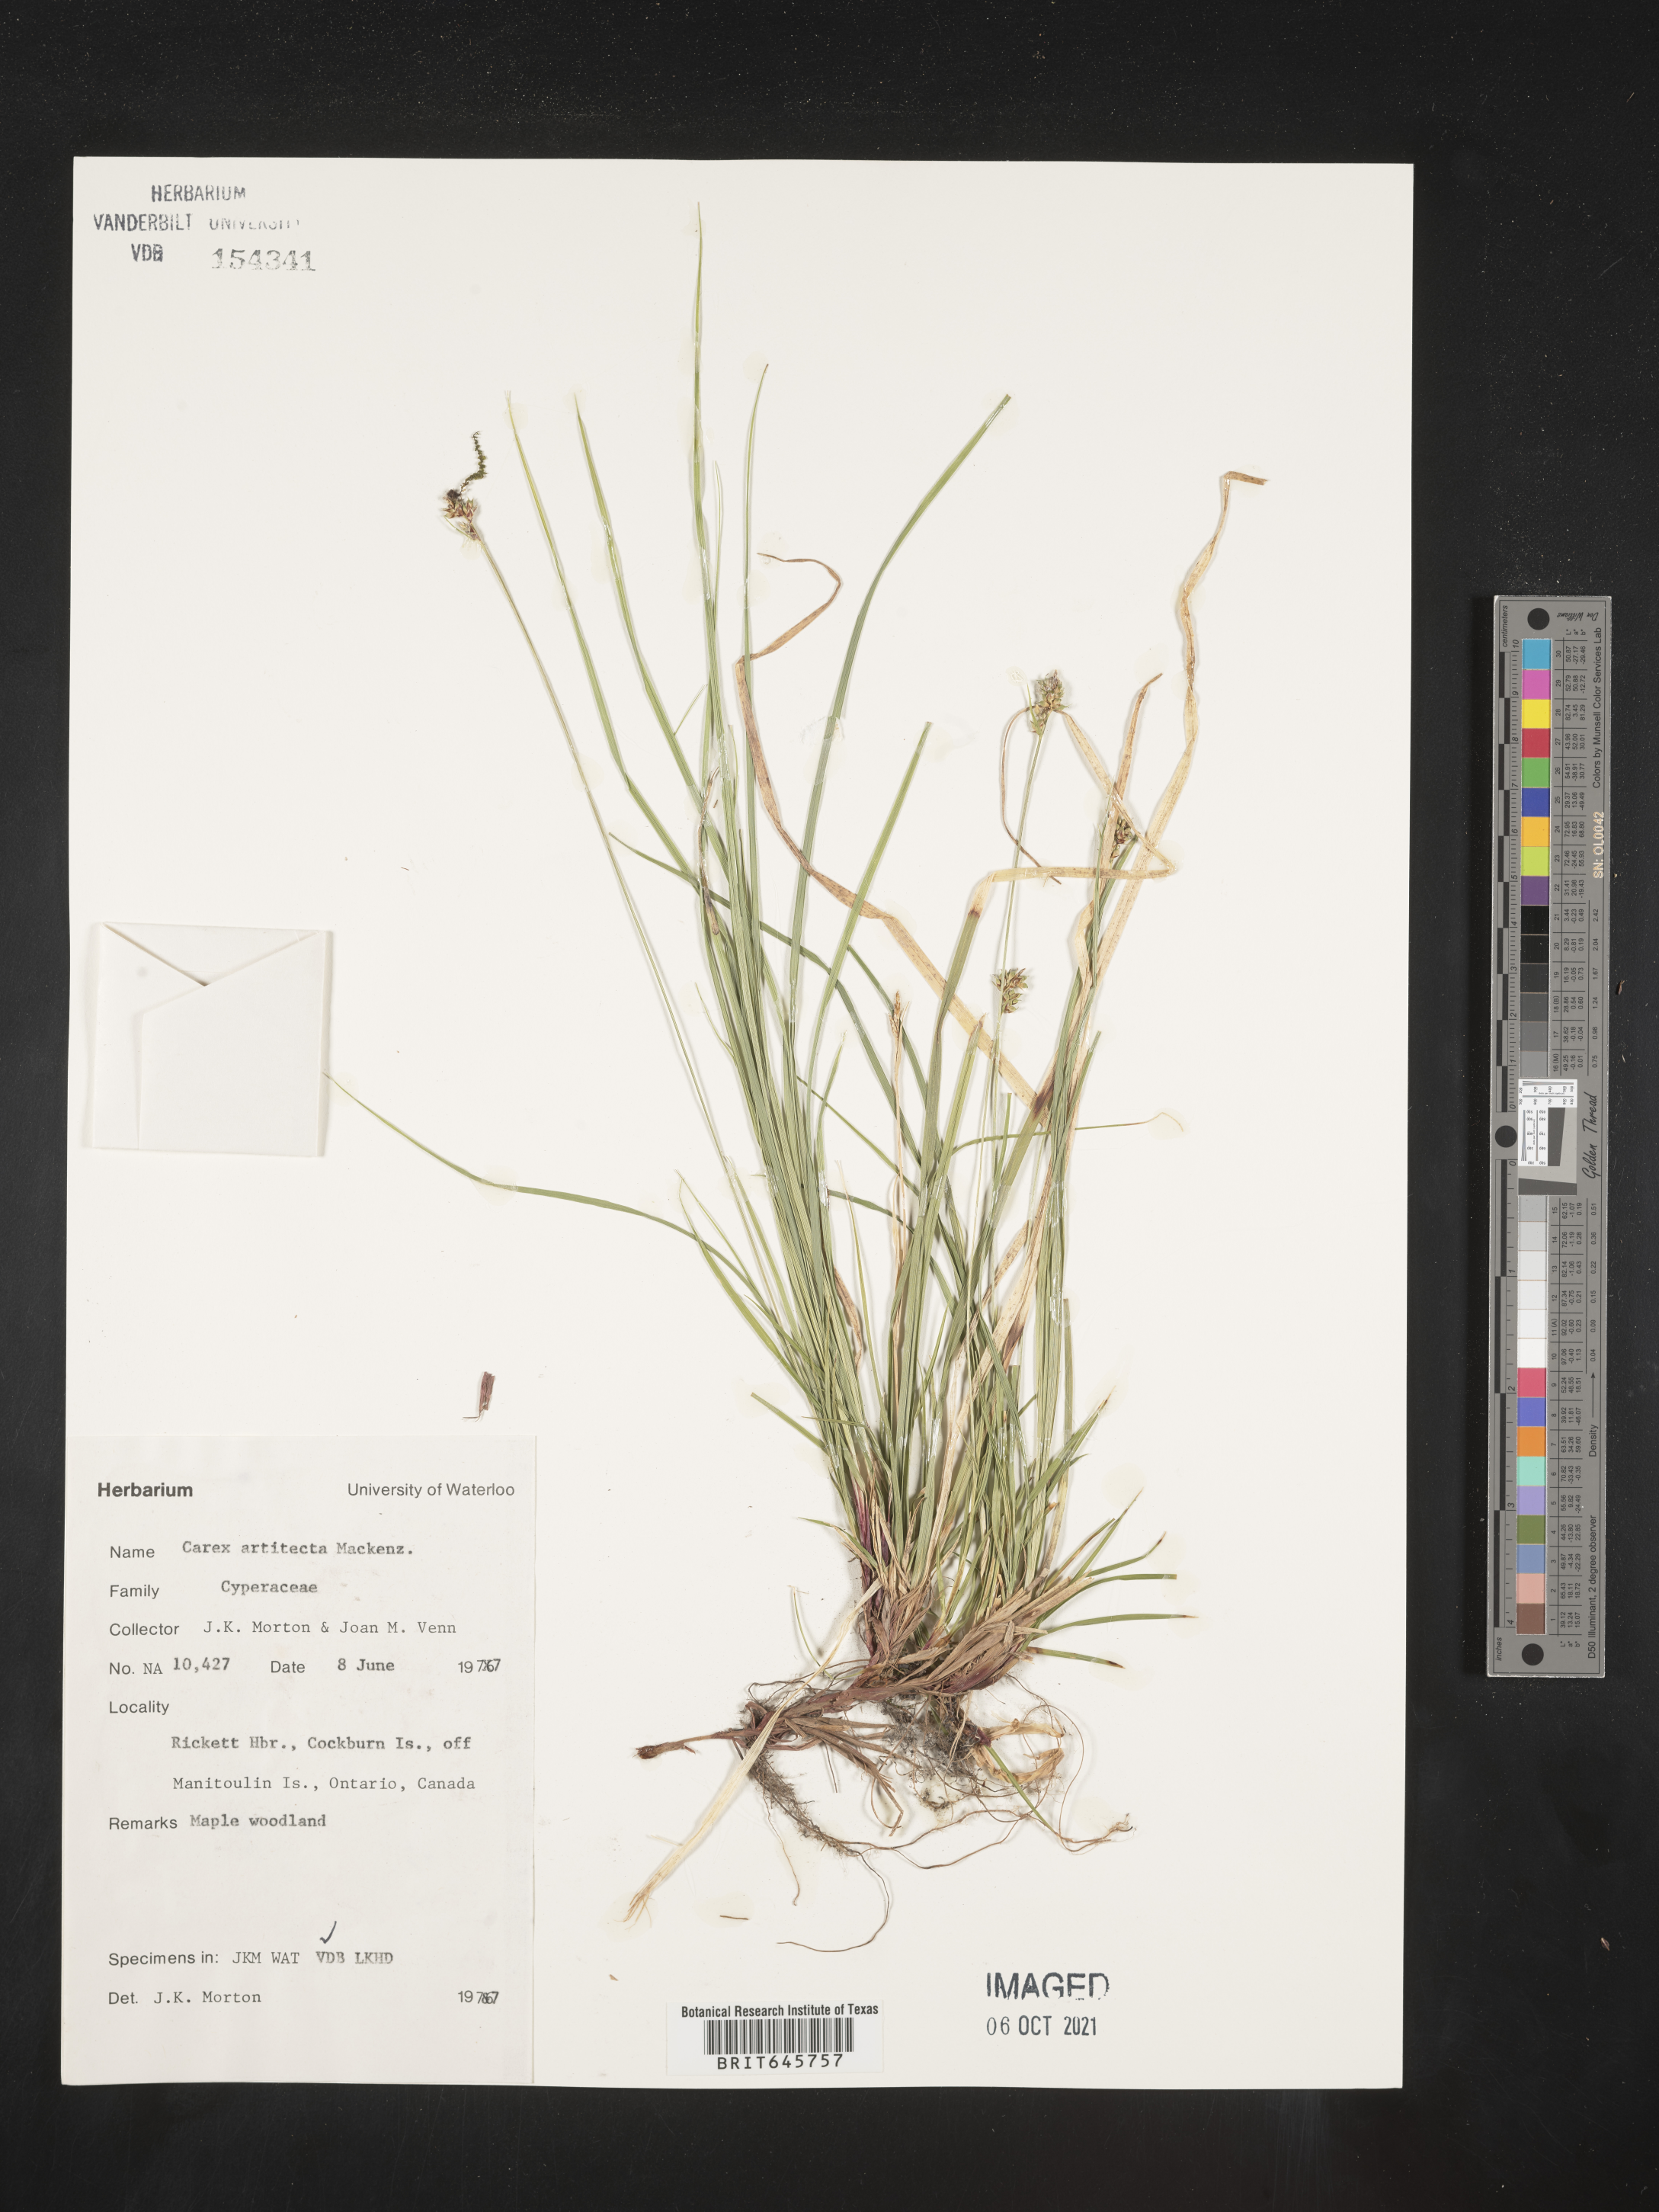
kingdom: Plantae
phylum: Tracheophyta
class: Liliopsida
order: Poales
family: Cyperaceae
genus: Carex
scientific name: Carex albicans
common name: Bellow-beaked sedge
